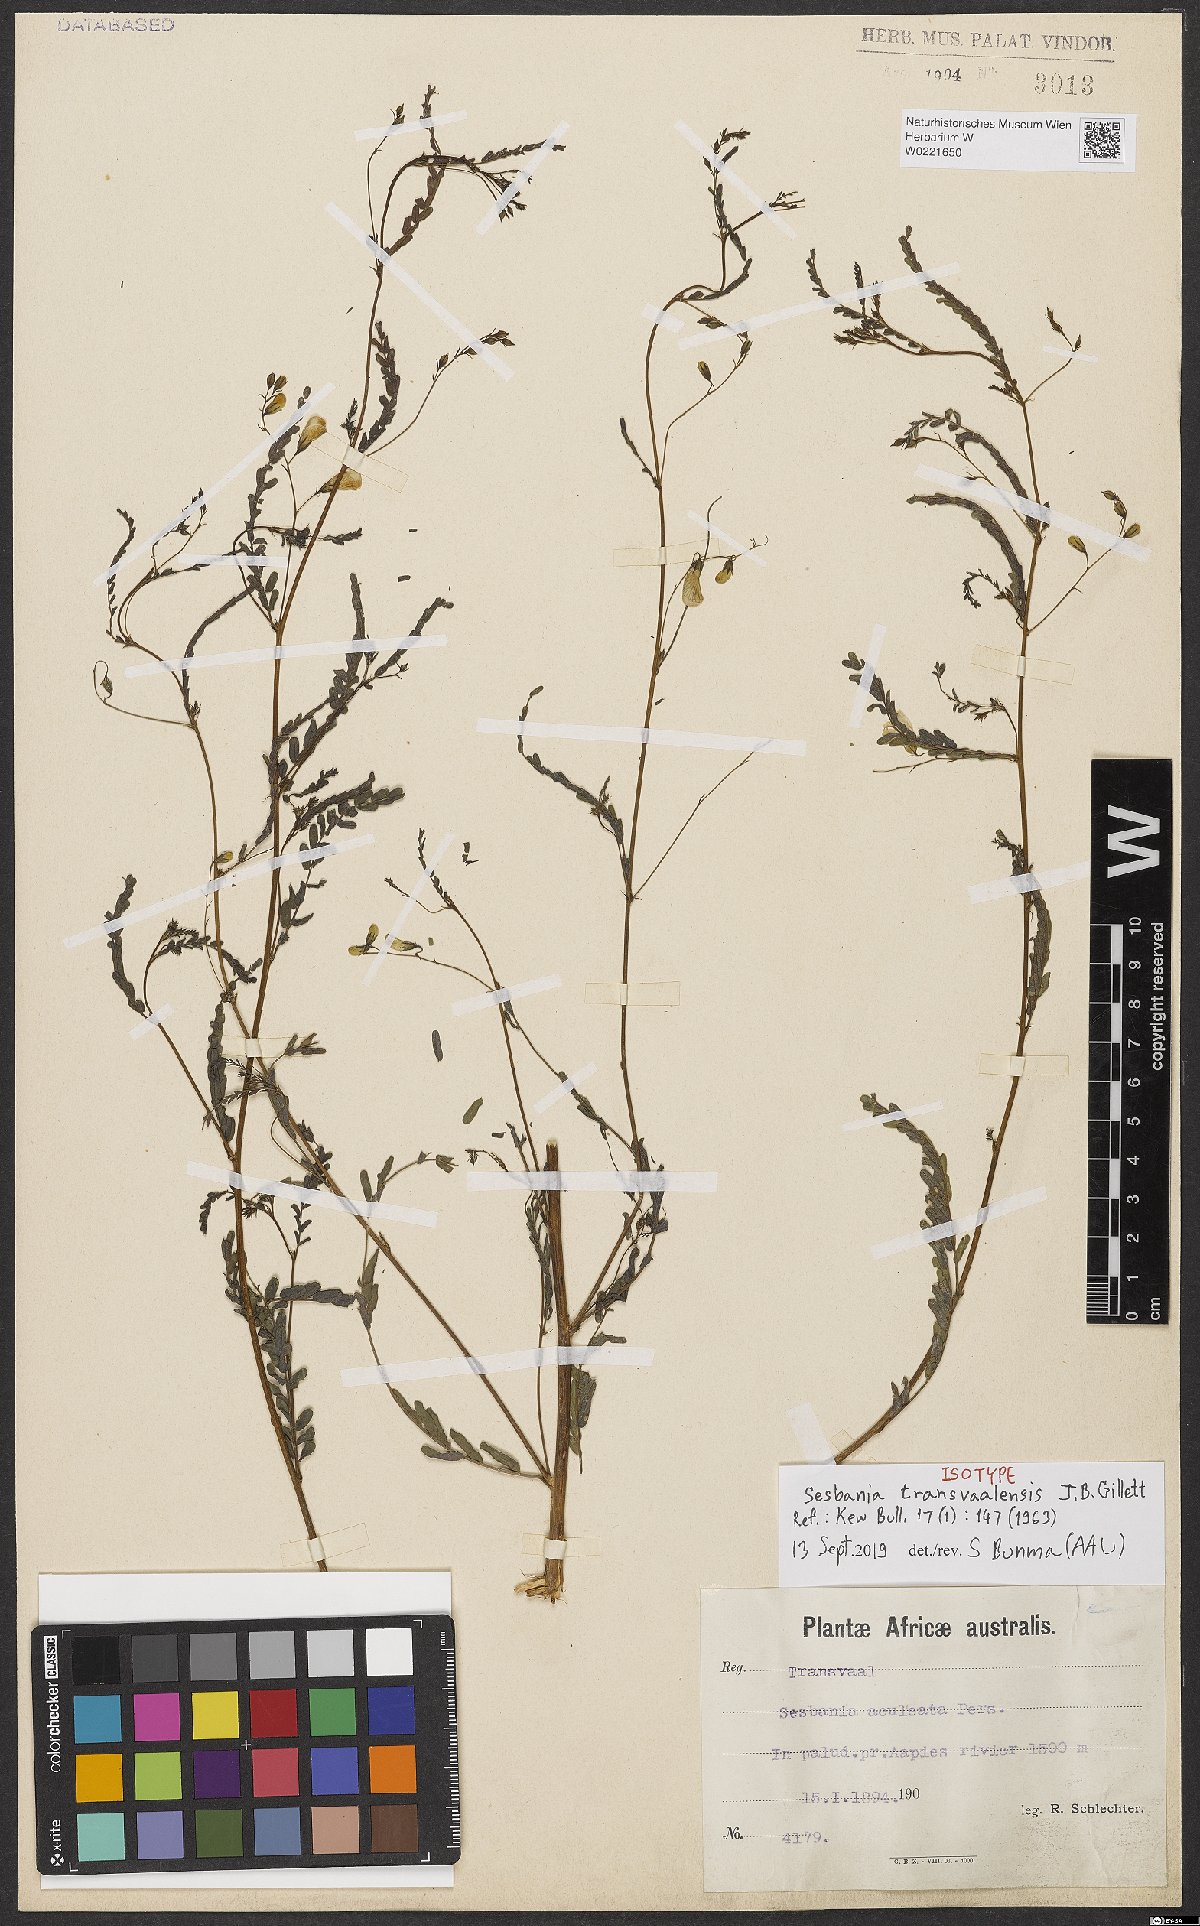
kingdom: Plantae
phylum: Tracheophyta
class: Magnoliopsida
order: Fabales
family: Fabaceae
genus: Sesbania
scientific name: Sesbania transvaalensis
